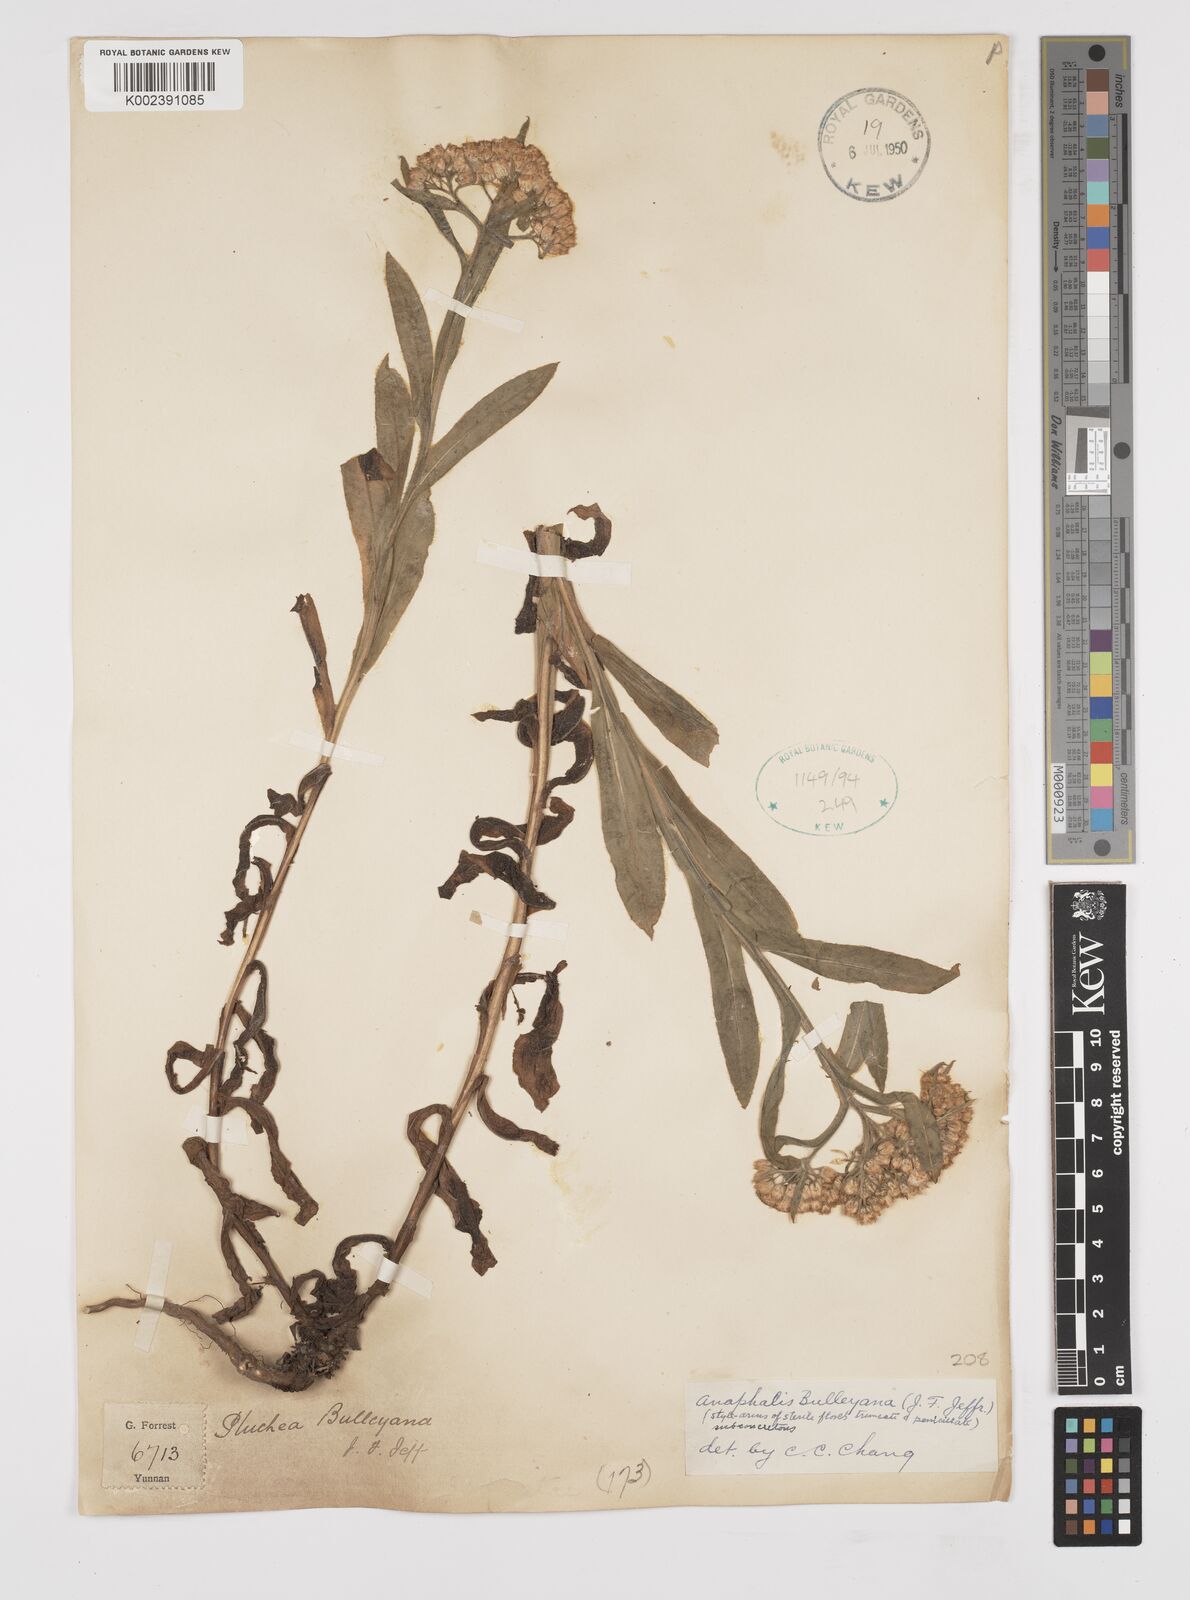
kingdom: Plantae
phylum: Tracheophyta
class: Magnoliopsida
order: Asterales
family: Asteraceae
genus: Anaphalis
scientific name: Anaphalis bulleyana
